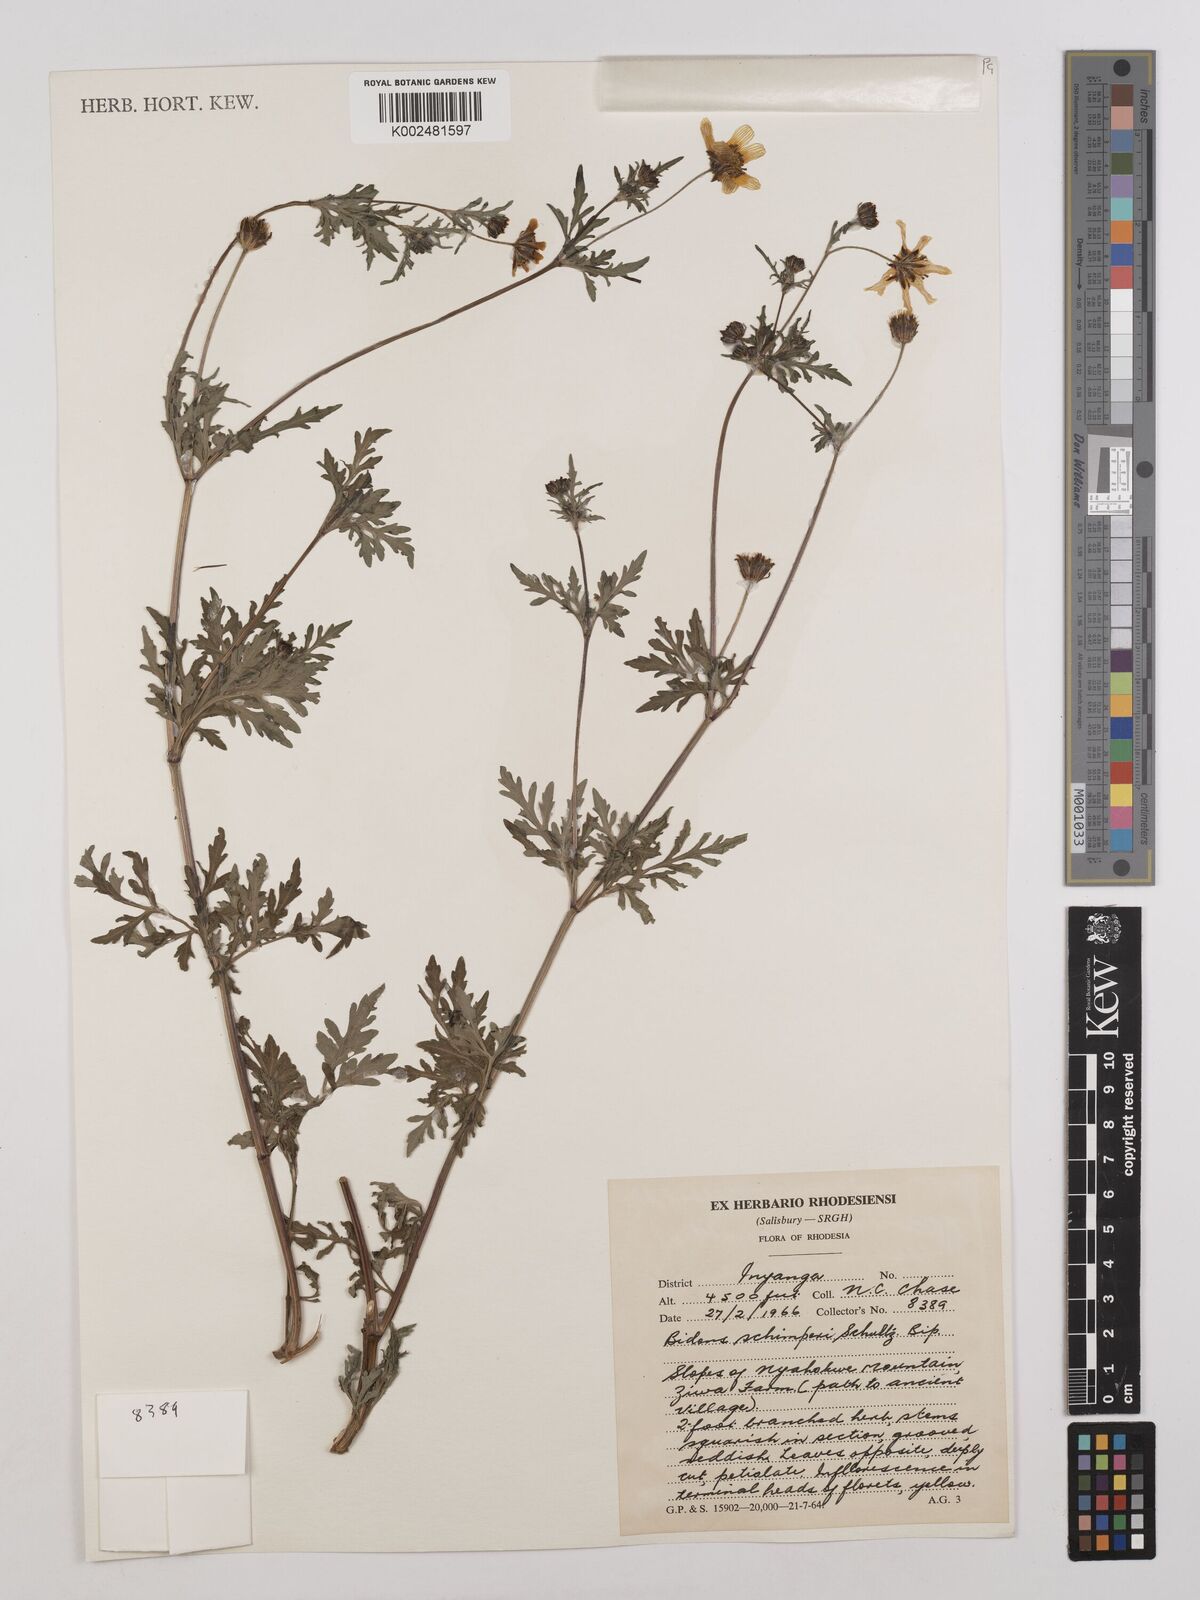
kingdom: Plantae
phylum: Tracheophyta
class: Magnoliopsida
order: Asterales
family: Asteraceae
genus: Bidens
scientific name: Bidens schimperi
